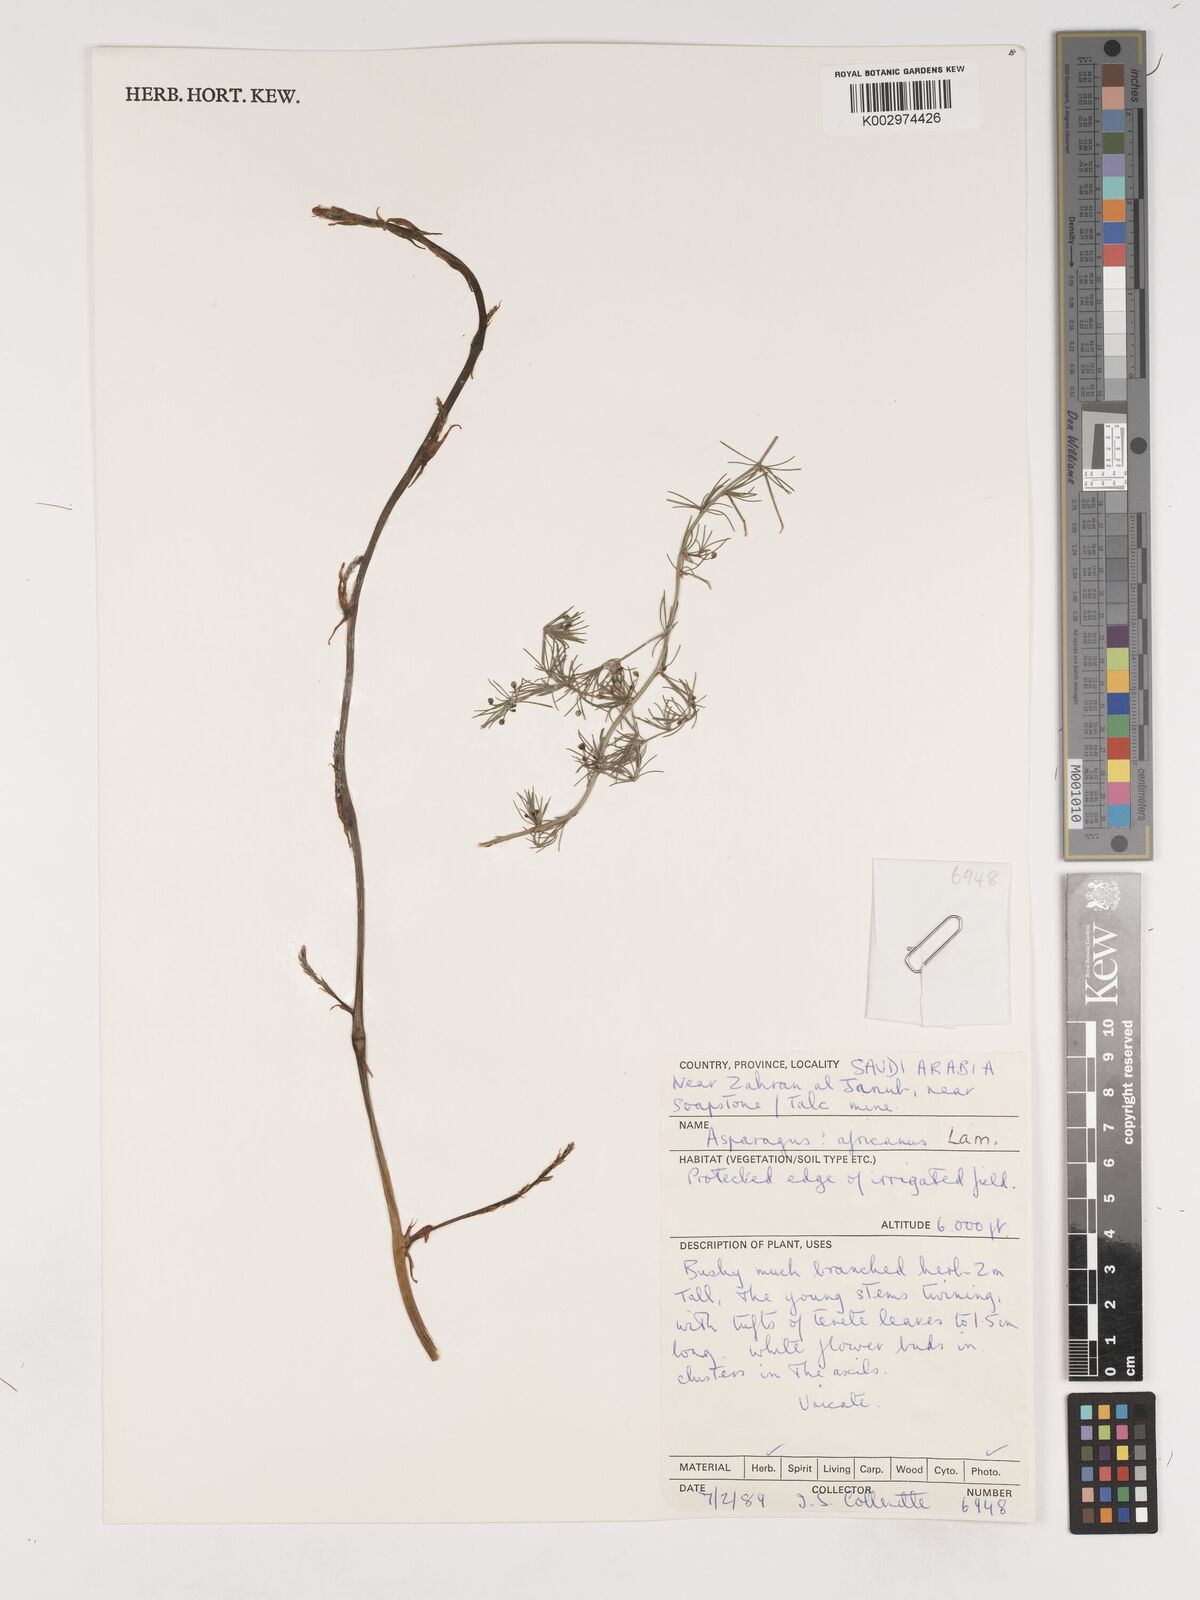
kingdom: Plantae
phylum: Tracheophyta
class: Liliopsida
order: Asparagales
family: Asparagaceae
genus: Asparagus
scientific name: Asparagus africanus
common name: Asparagus-fern
